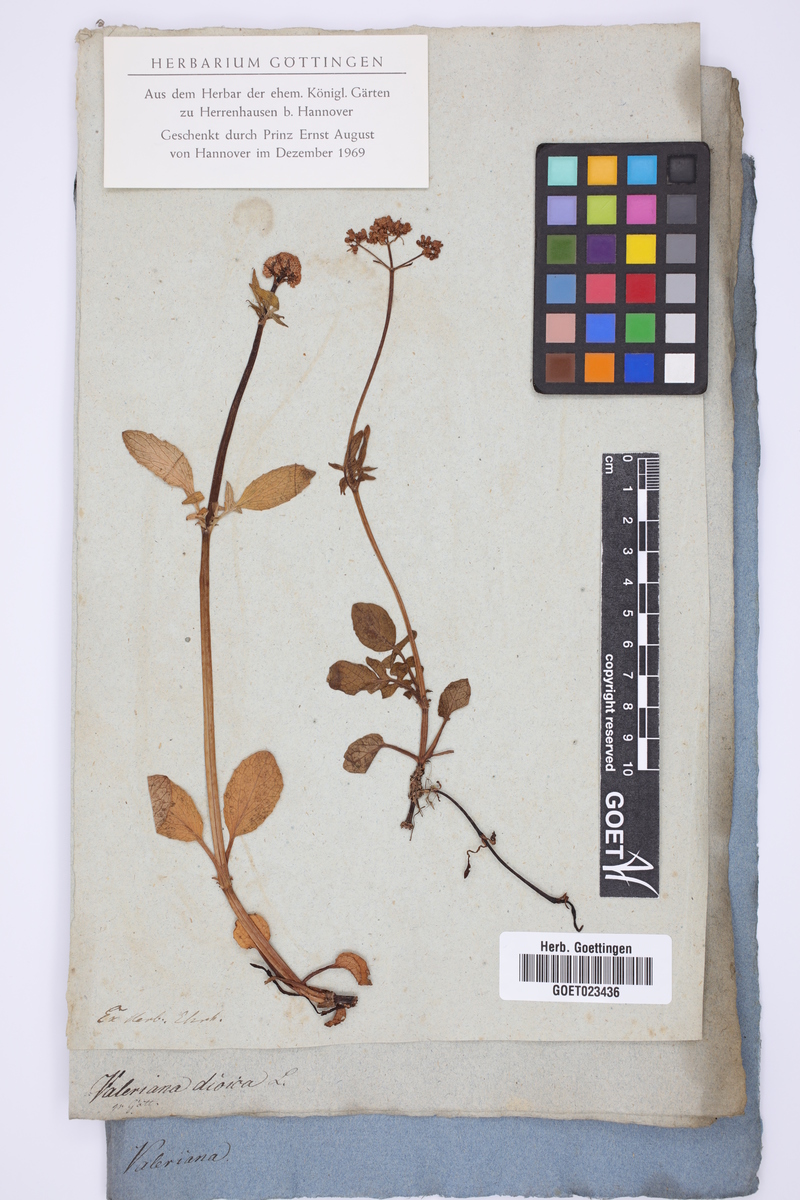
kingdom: Plantae
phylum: Tracheophyta
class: Magnoliopsida
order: Dipsacales
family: Caprifoliaceae
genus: Valeriana
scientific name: Valeriana dioica
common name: Marsh valerian
